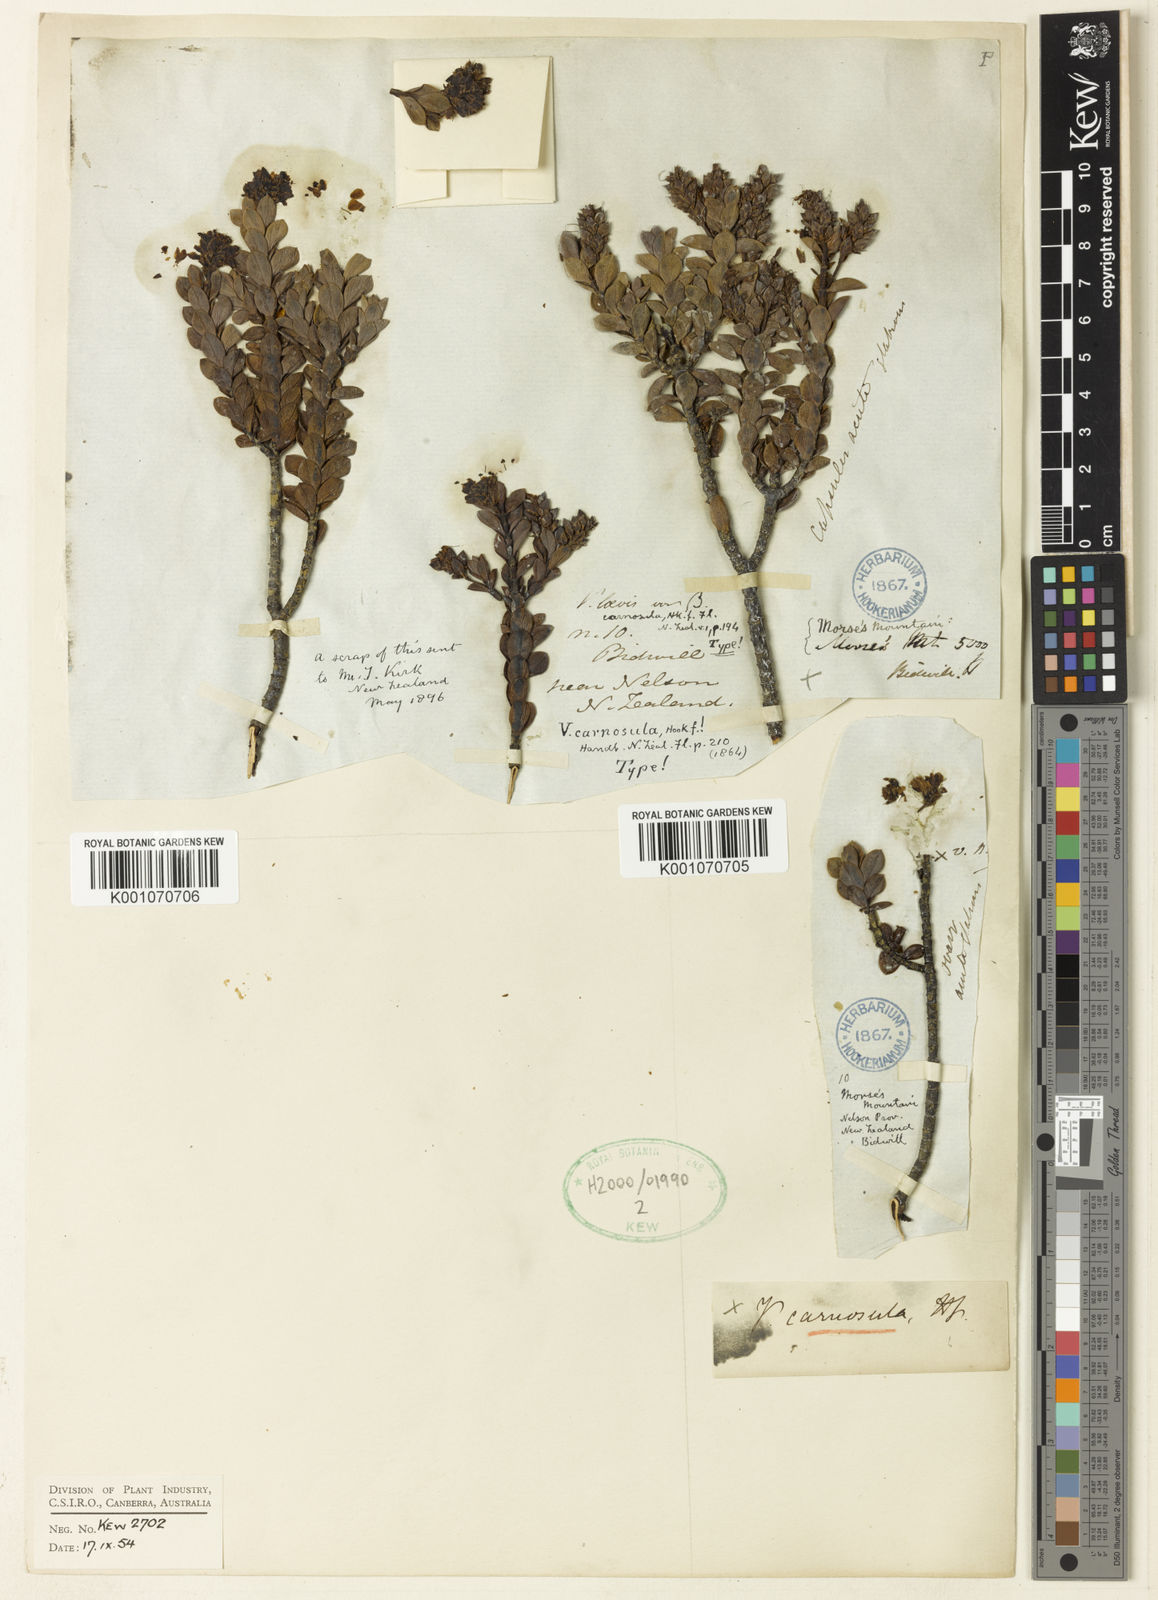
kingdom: Plantae
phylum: Tracheophyta
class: Magnoliopsida
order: Lamiales
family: Plantaginaceae
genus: Veronica
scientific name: Veronica baylyi
